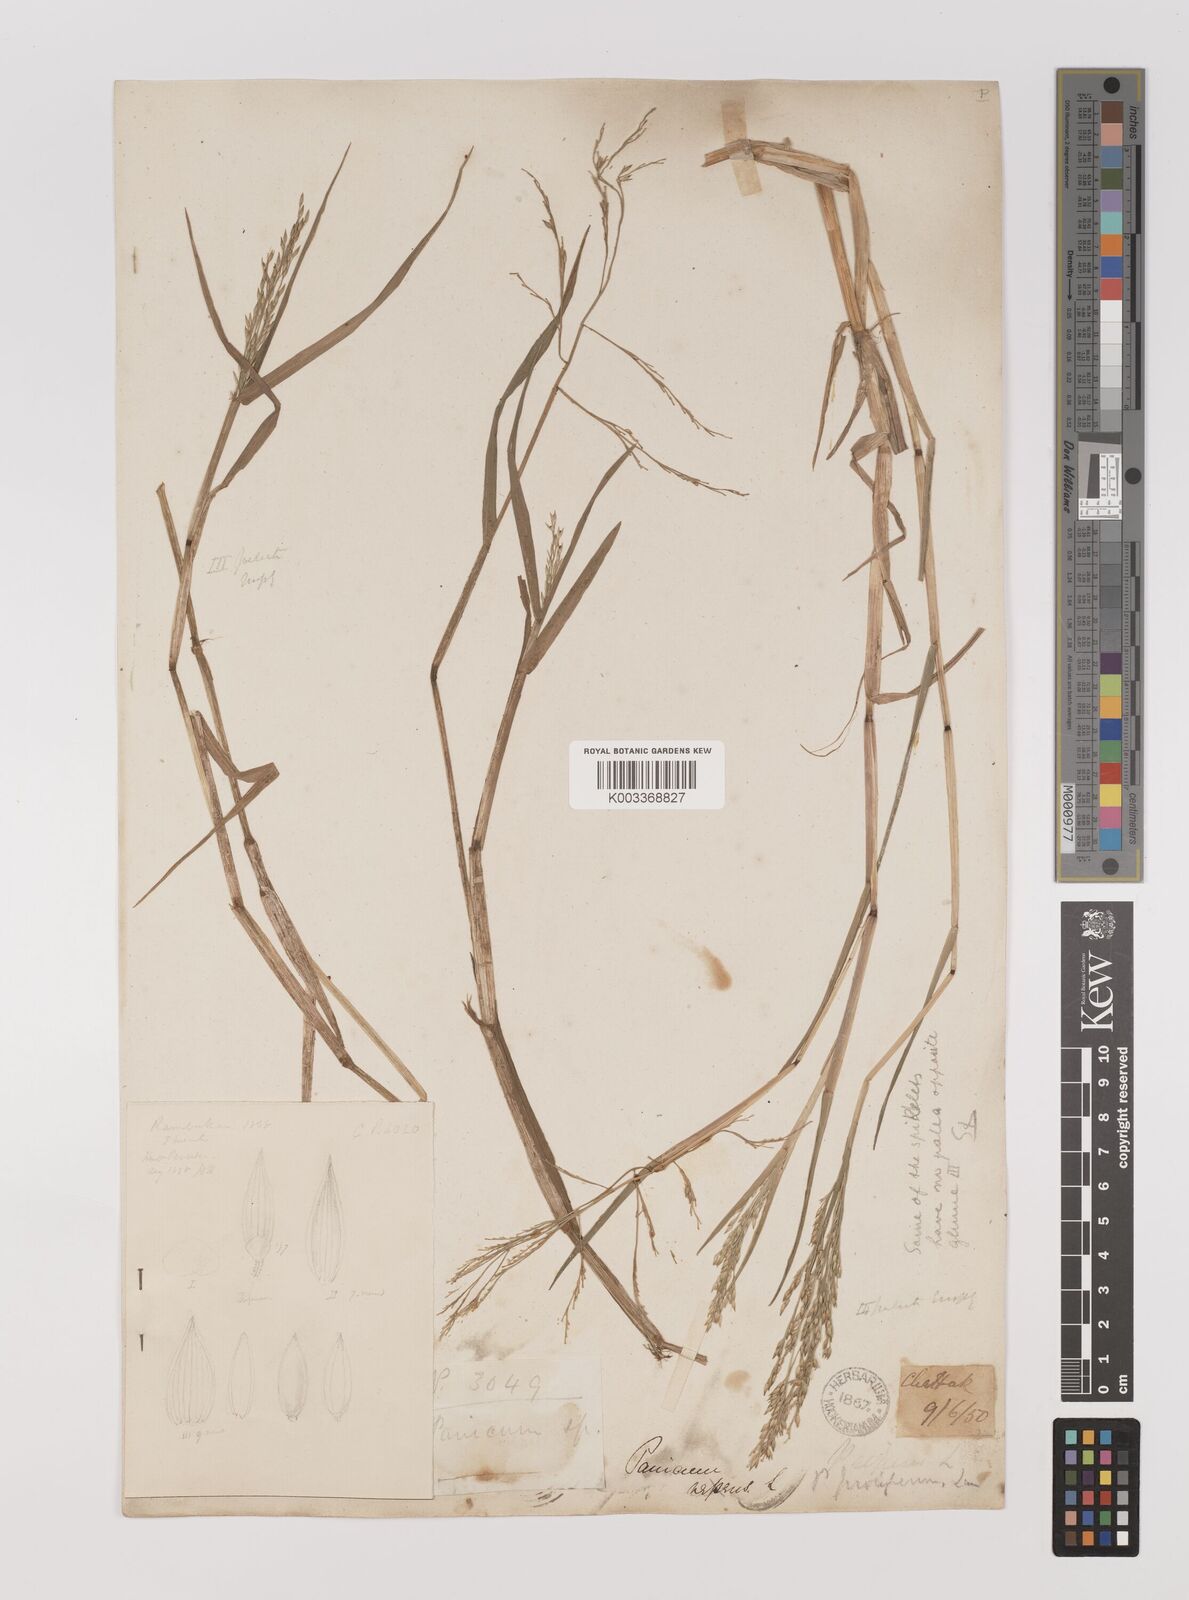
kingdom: Plantae
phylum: Tracheophyta
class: Liliopsida
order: Poales
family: Poaceae
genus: Louisiella
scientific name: Louisiella paludosa
